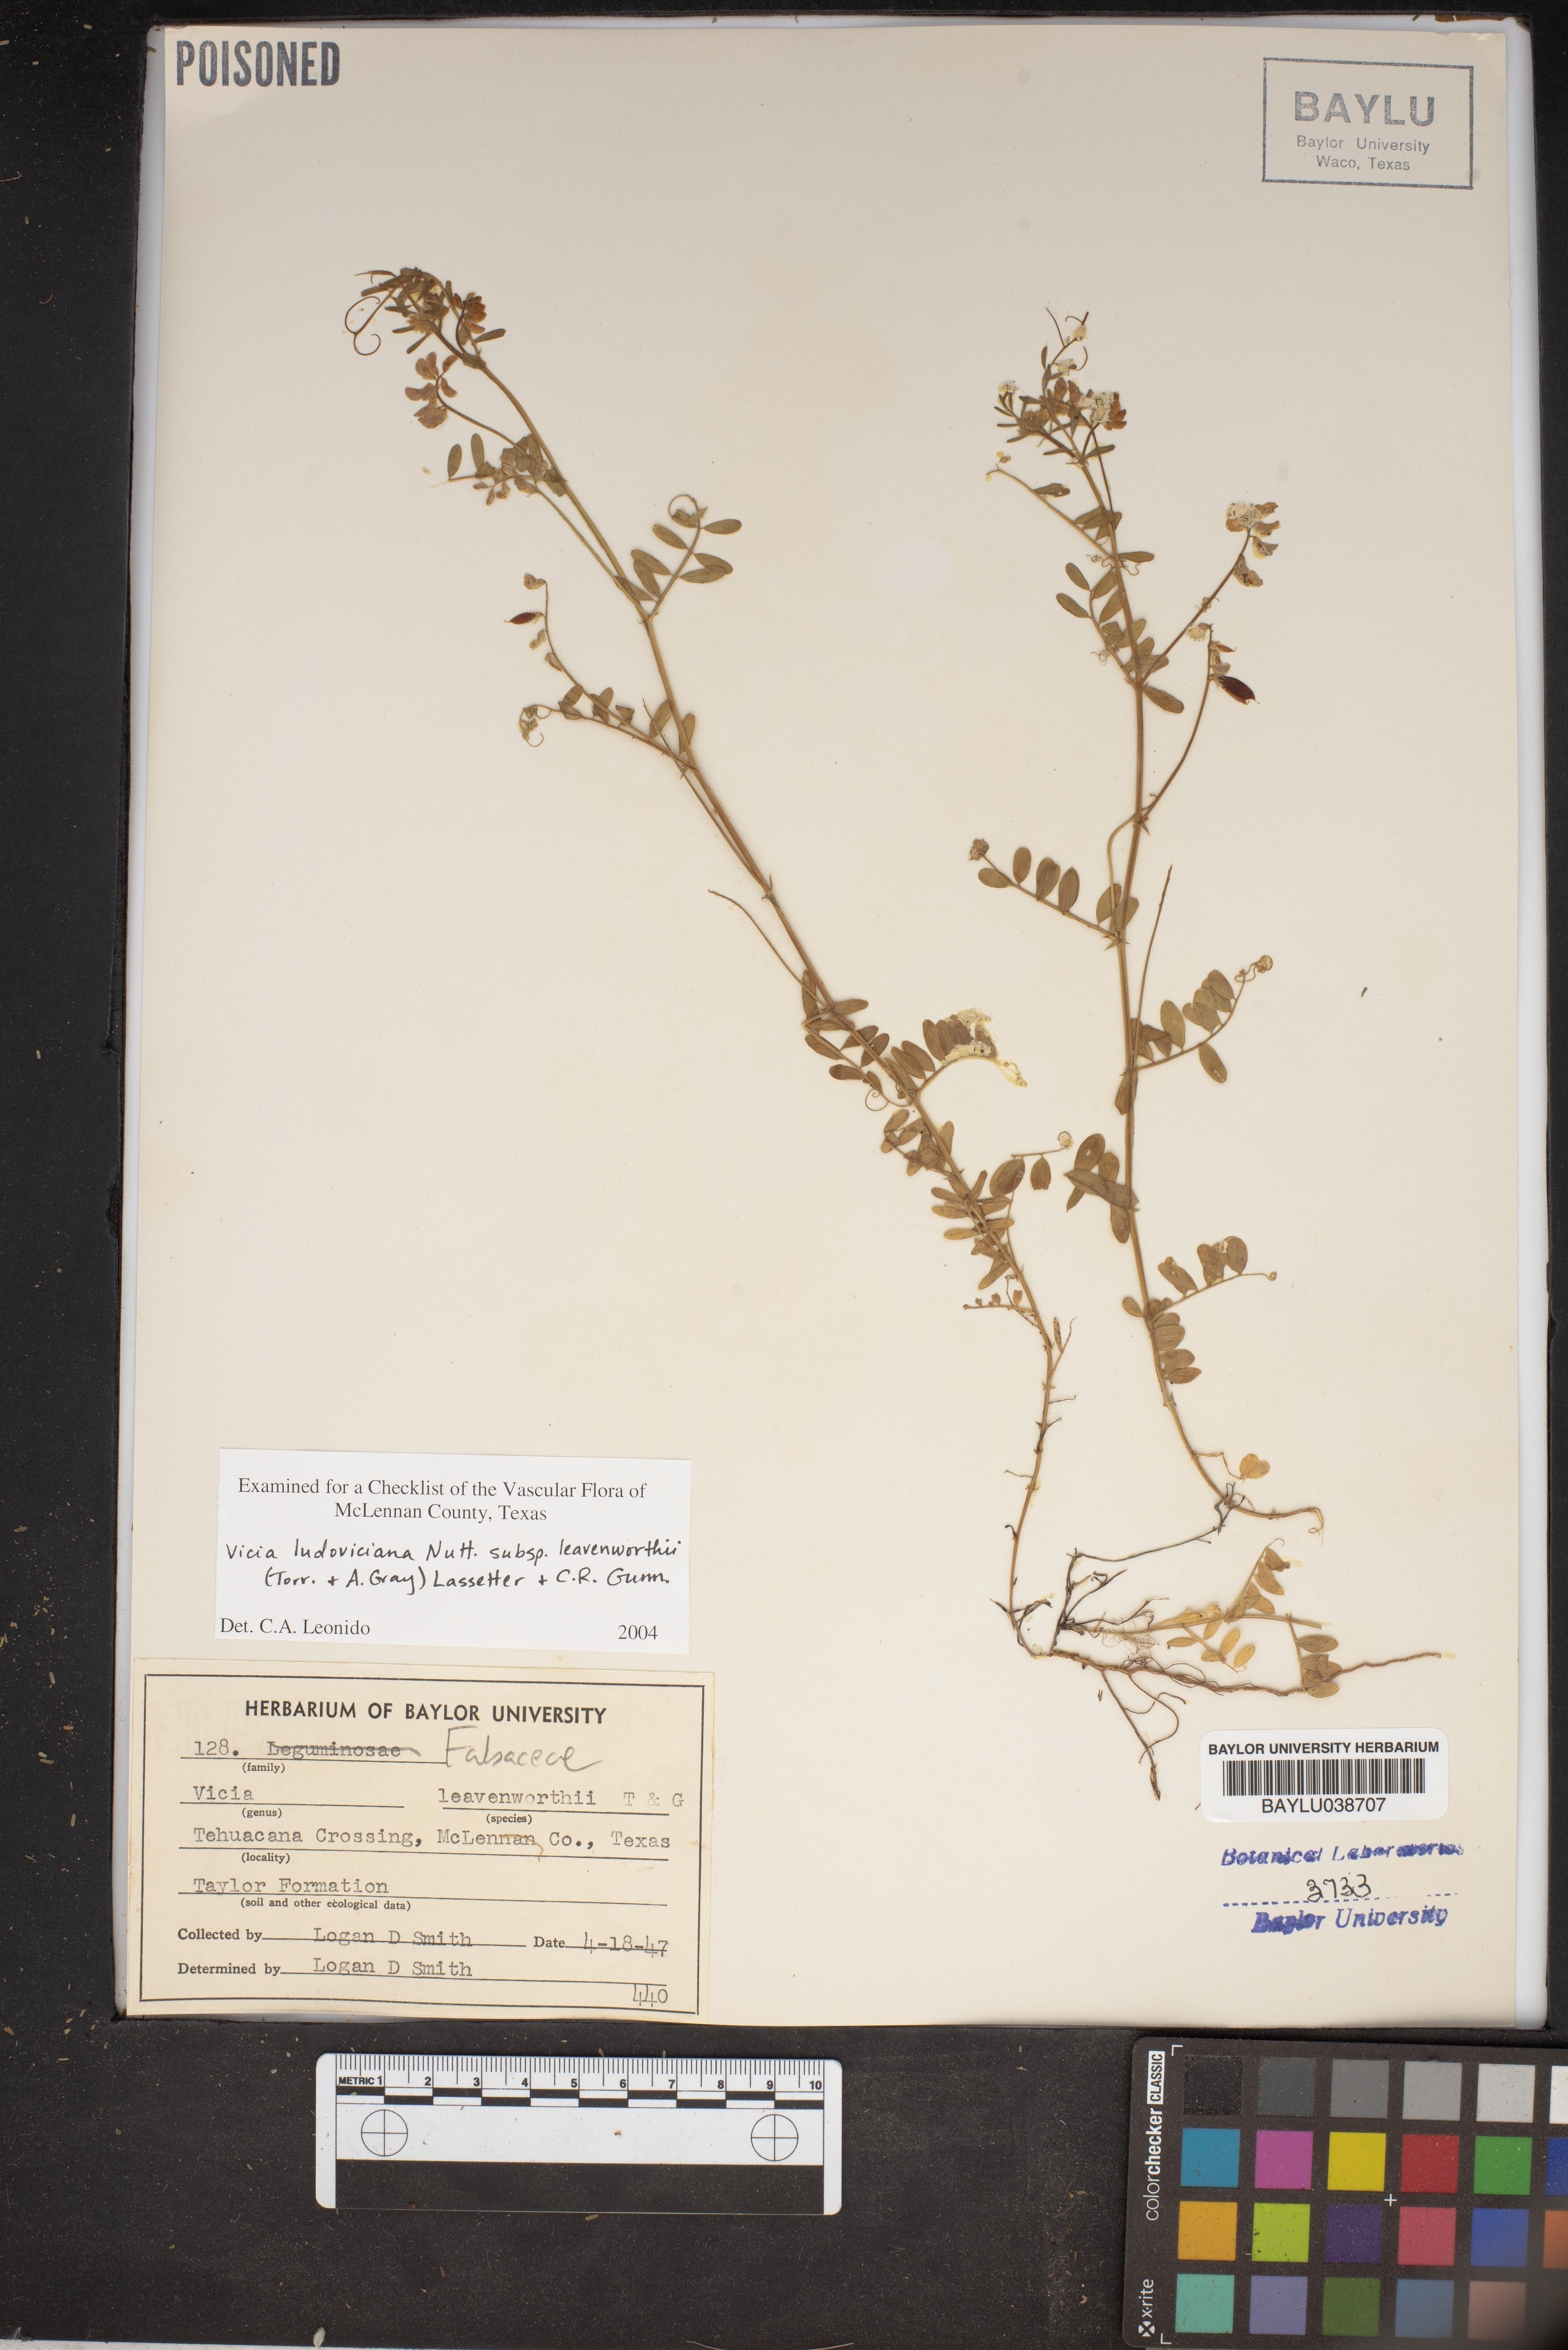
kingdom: Plantae
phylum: Tracheophyta
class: Magnoliopsida
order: Fabales
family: Fabaceae
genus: Vicia
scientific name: Vicia ludoviciana
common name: Louisiana vetch
